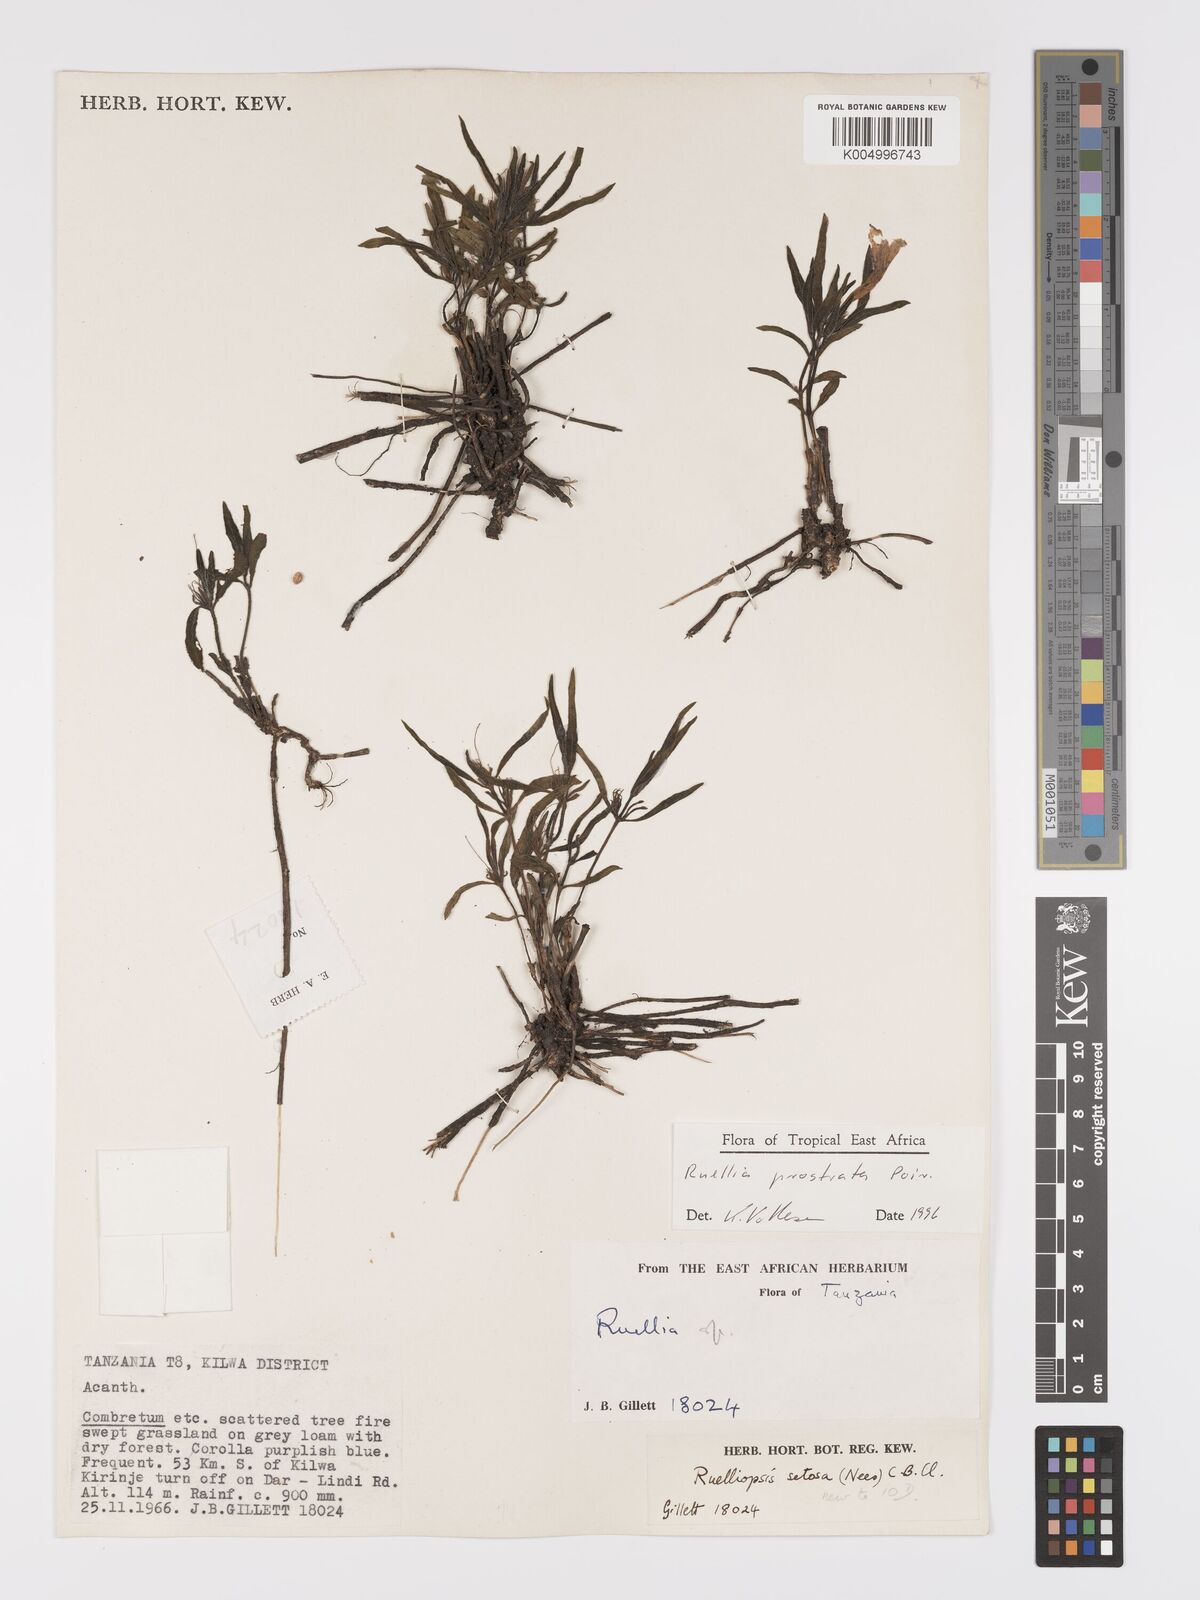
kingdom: Plantae
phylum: Tracheophyta
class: Magnoliopsida
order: Lamiales
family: Acanthaceae
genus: Ruellia
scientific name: Ruellia
